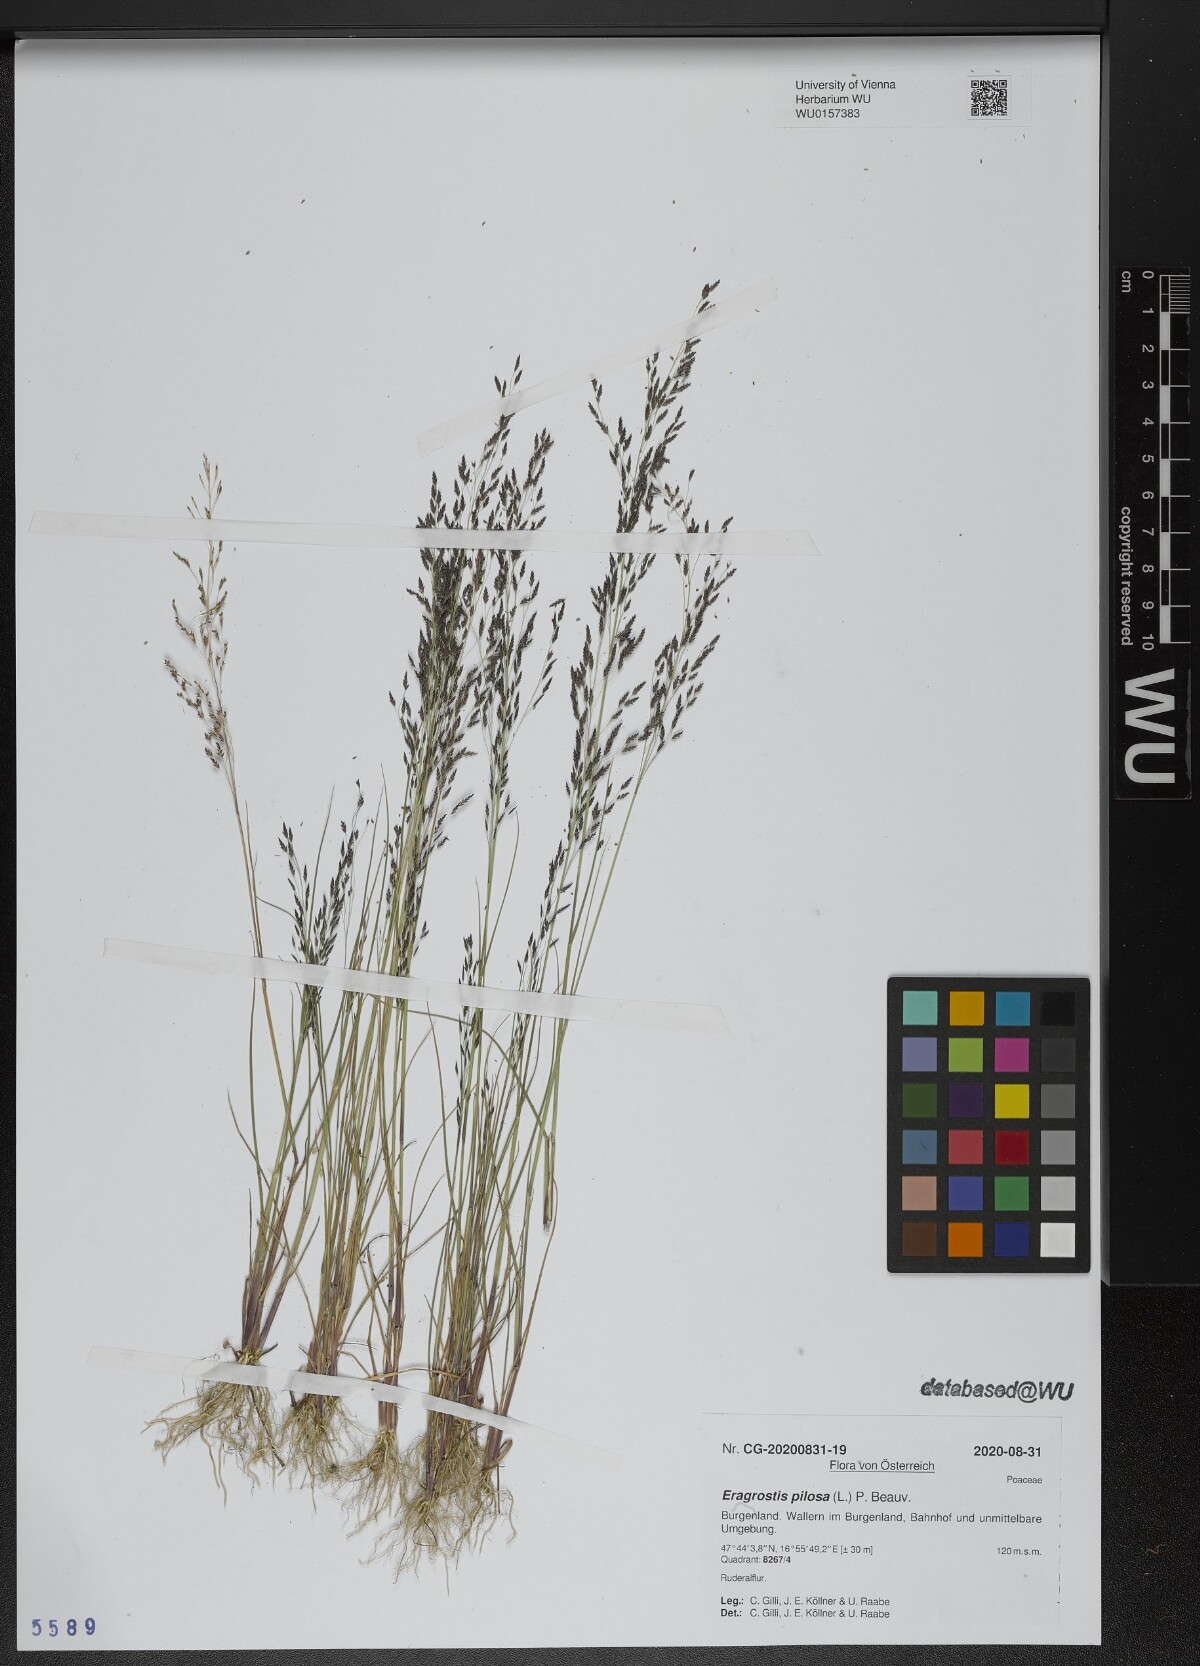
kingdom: Plantae
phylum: Tracheophyta
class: Liliopsida
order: Poales
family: Poaceae
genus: Eragrostis
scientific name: Eragrostis pilosa
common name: Indian lovegrass
